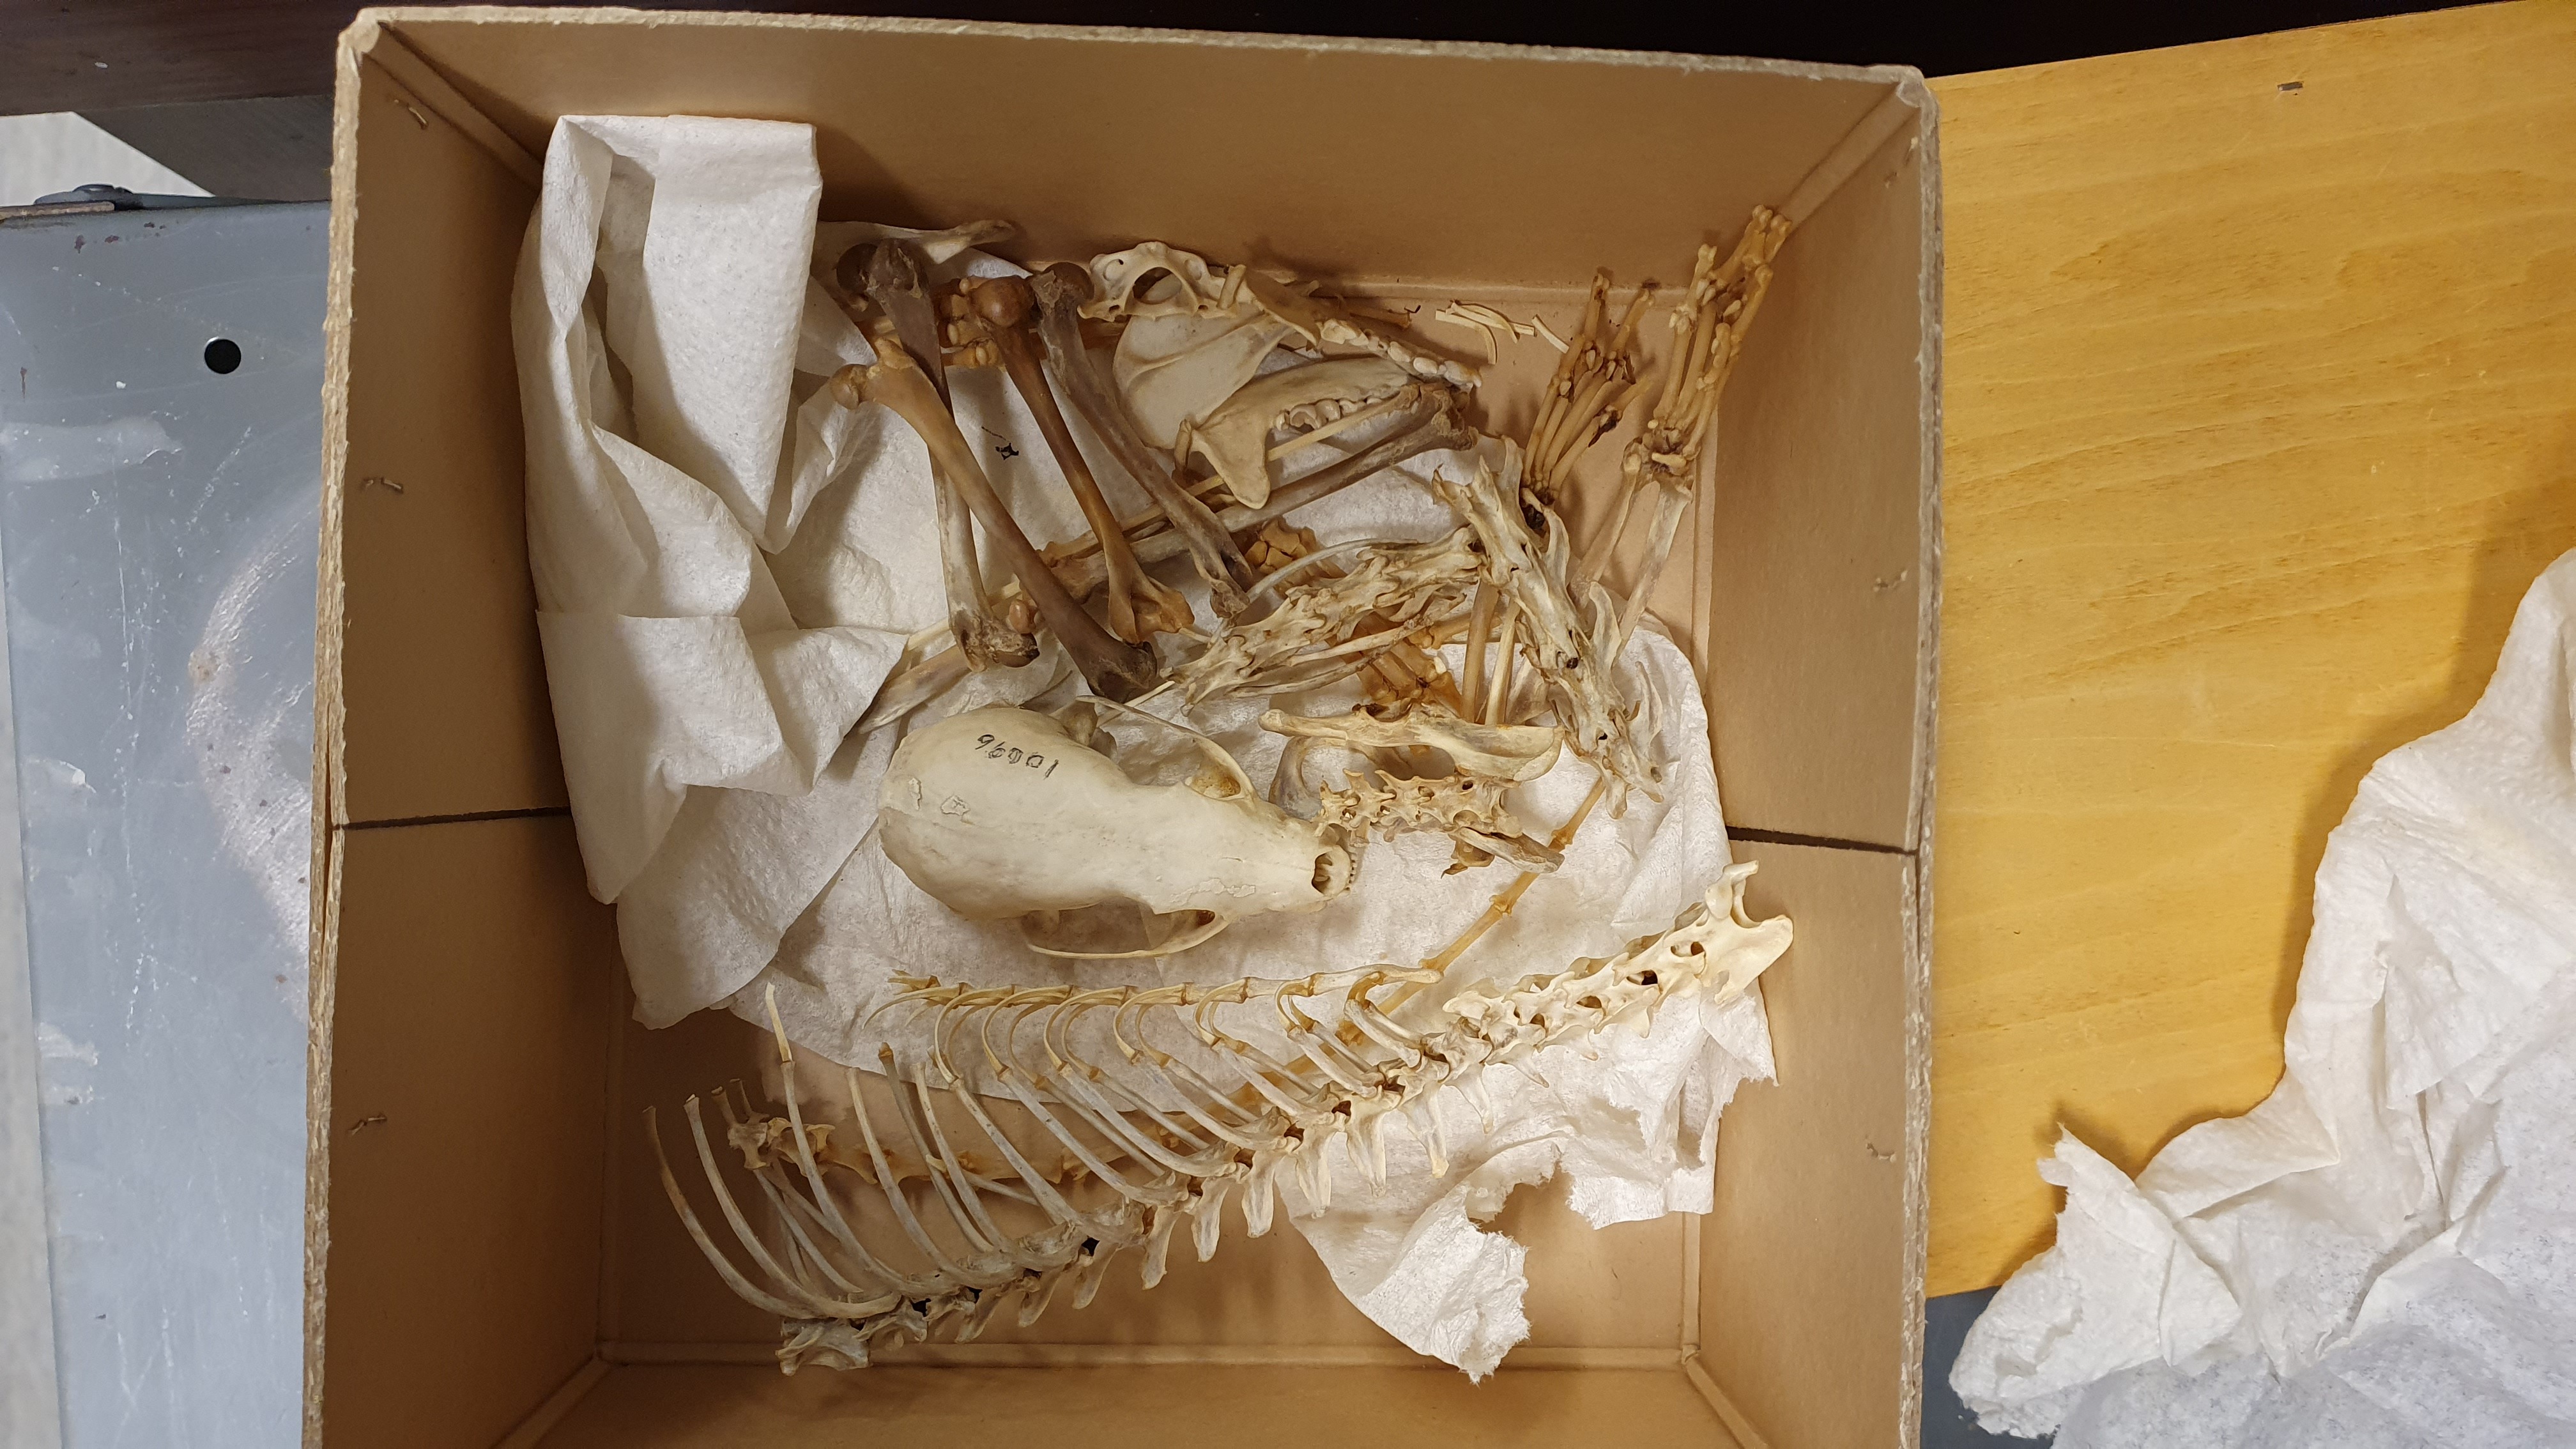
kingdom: Animalia
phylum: Chordata
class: Mammalia
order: Carnivora
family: Mustelidae
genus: Martes
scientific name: Martes martes
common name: European pine marten
